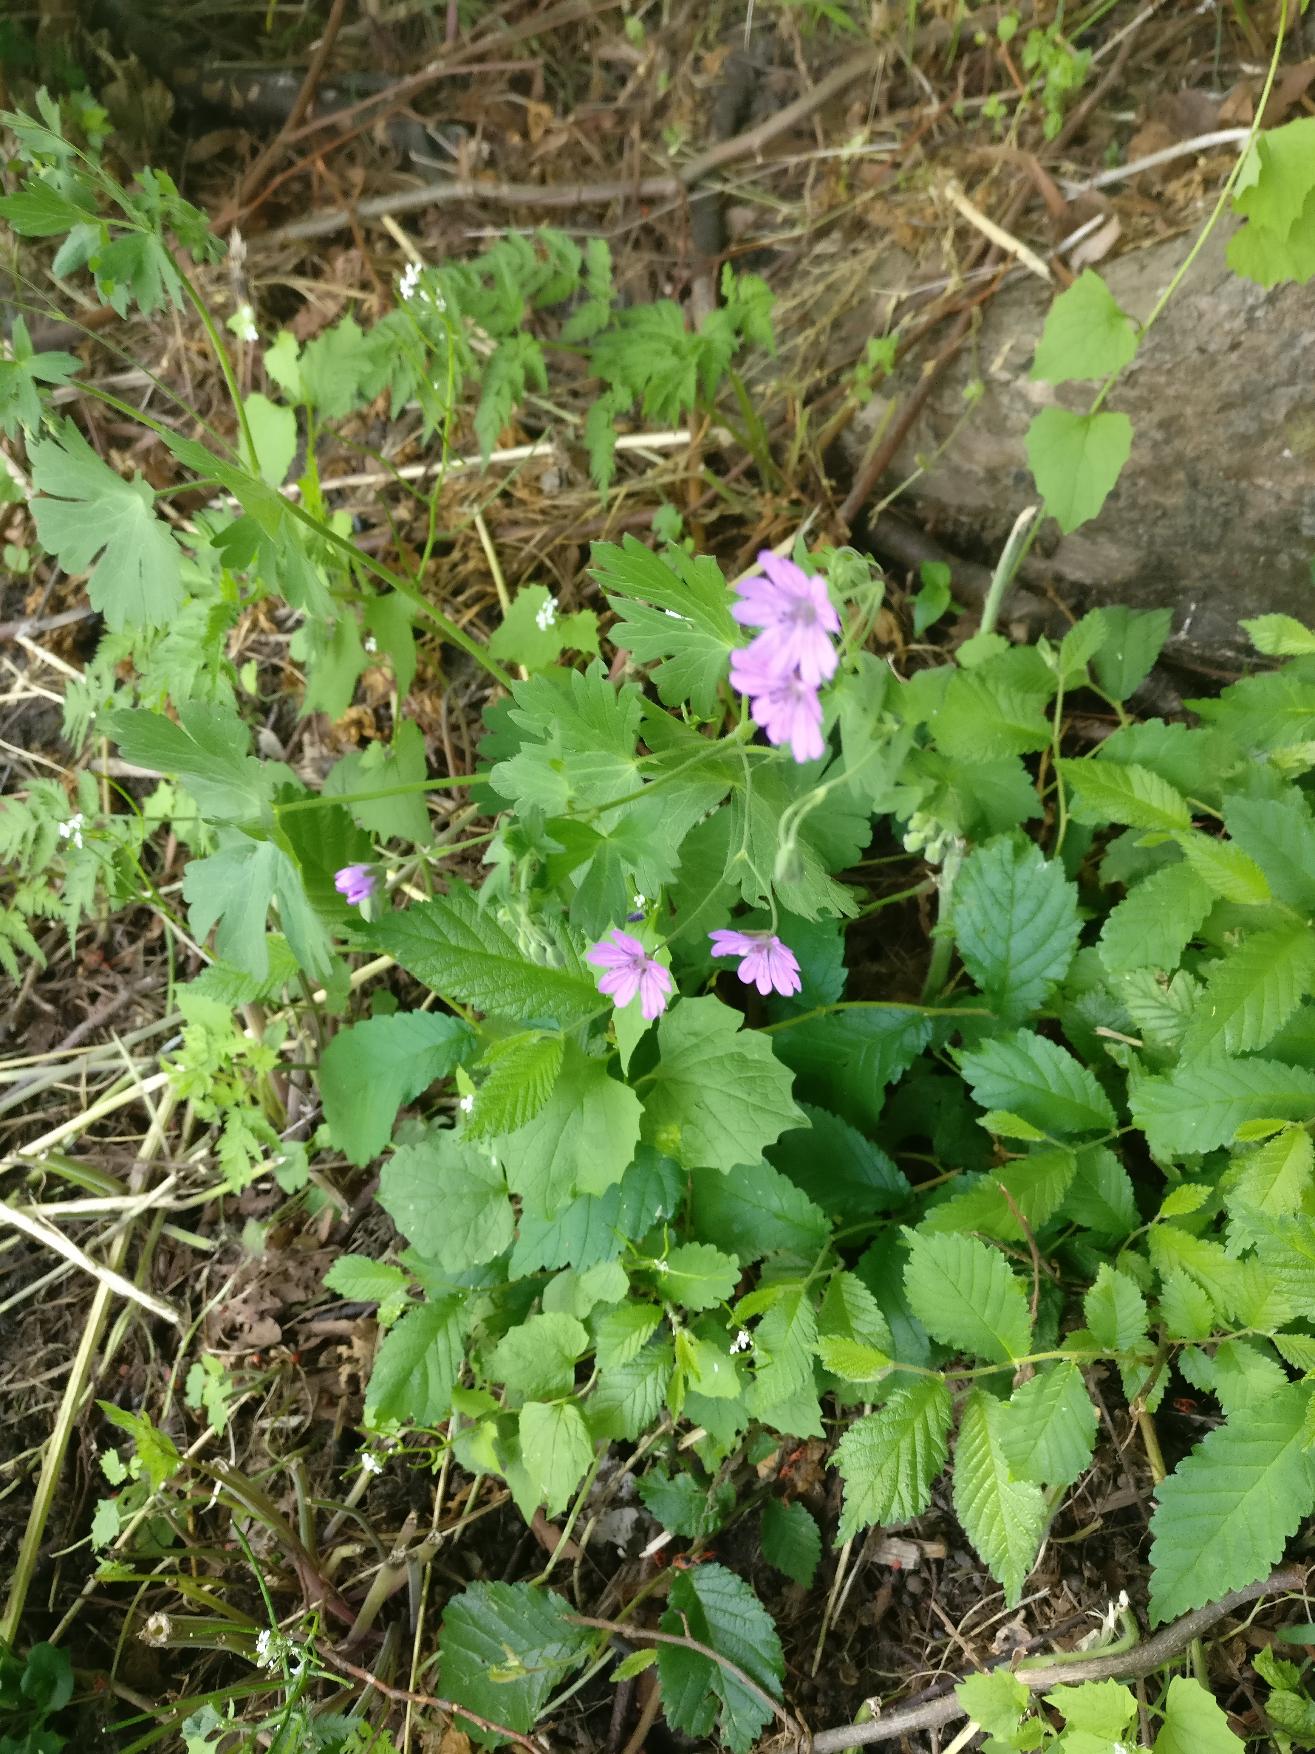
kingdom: Plantae
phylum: Tracheophyta
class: Magnoliopsida
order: Geraniales
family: Geraniaceae
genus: Geranium
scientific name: Geranium pyrenaicum
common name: Pyrenæisk storkenæb
